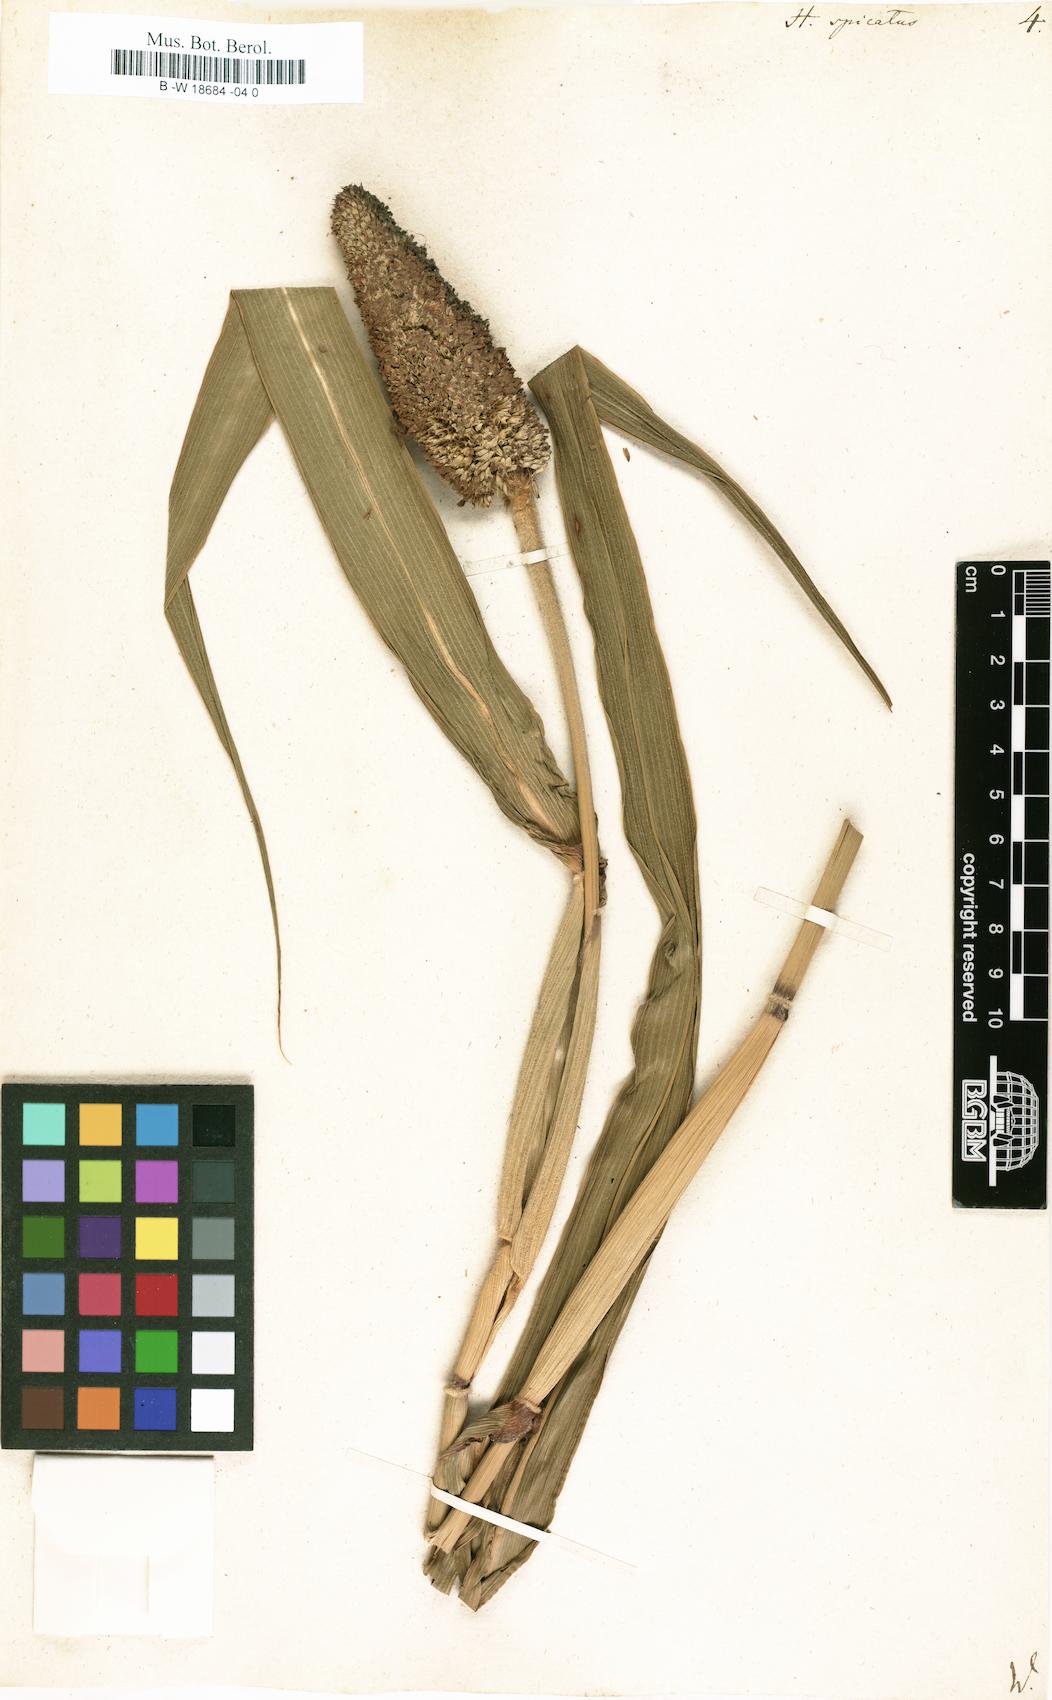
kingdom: Plantae
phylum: Tracheophyta
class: Liliopsida
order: Poales
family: Poaceae
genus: Cenchrus
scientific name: Cenchrus americanus
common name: Pearl millet
